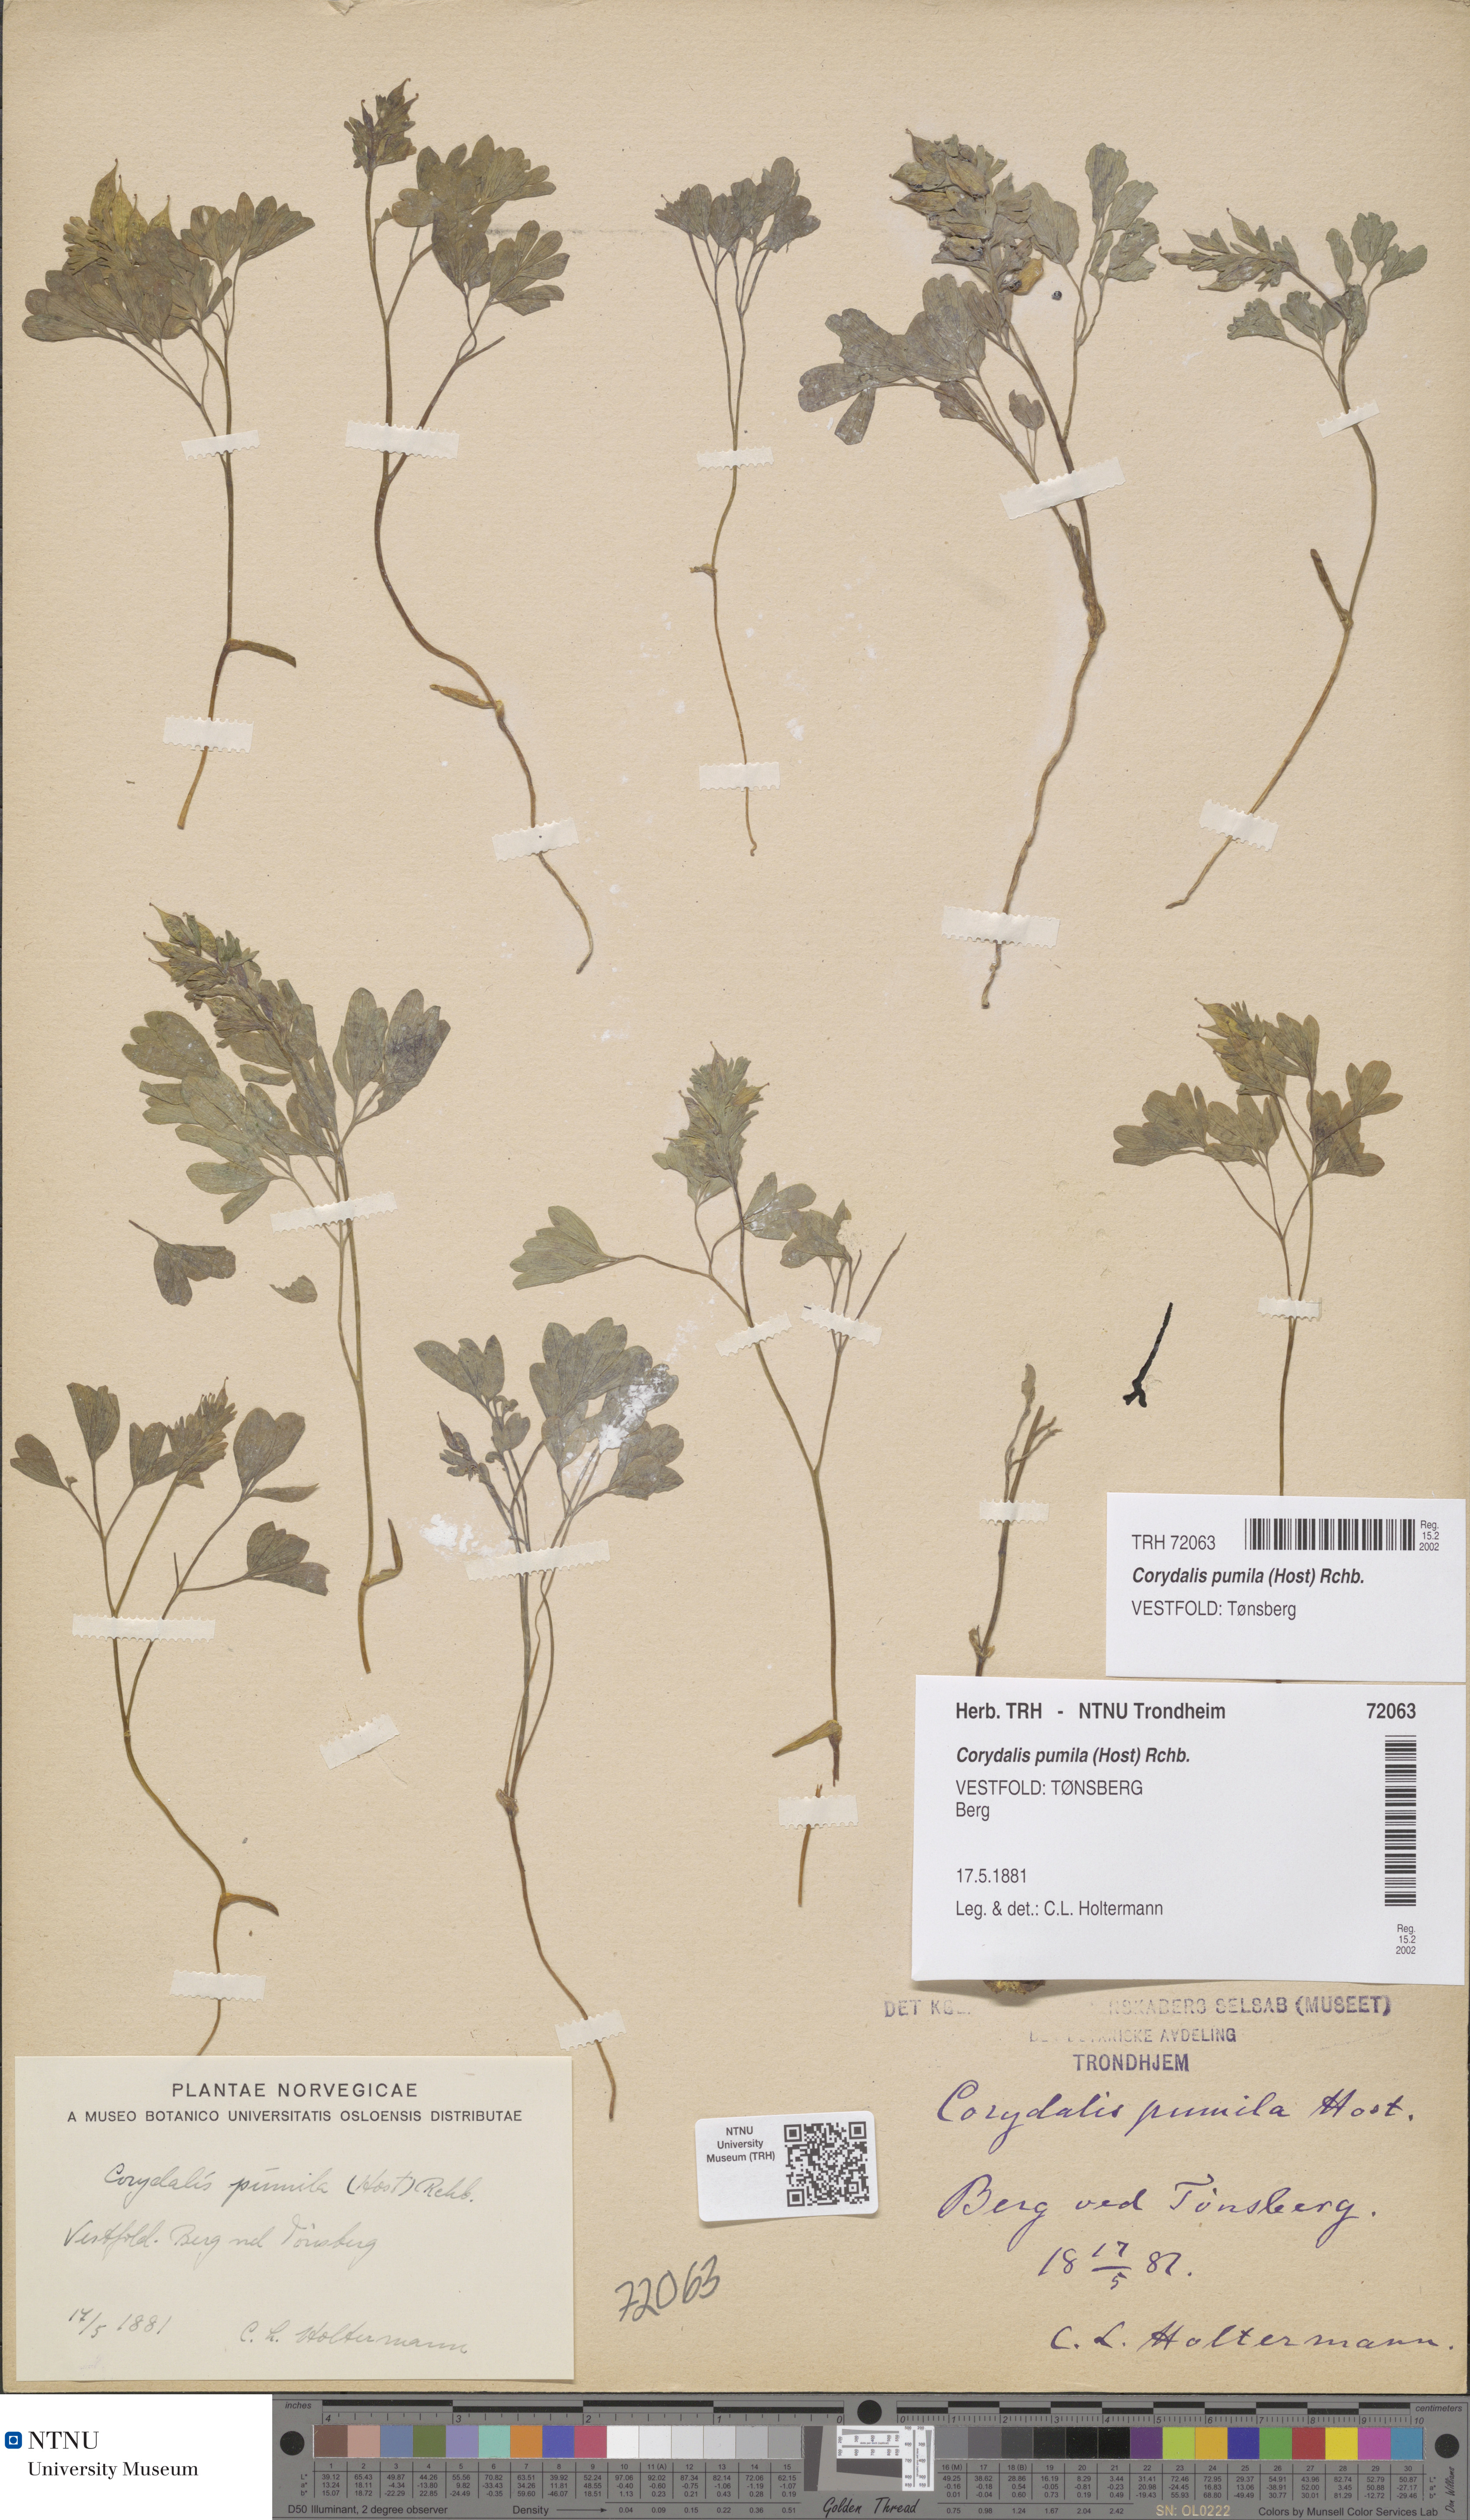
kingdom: Plantae
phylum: Tracheophyta
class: Magnoliopsida
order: Ranunculales
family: Papaveraceae
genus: Corydalis
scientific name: Corydalis pumila
